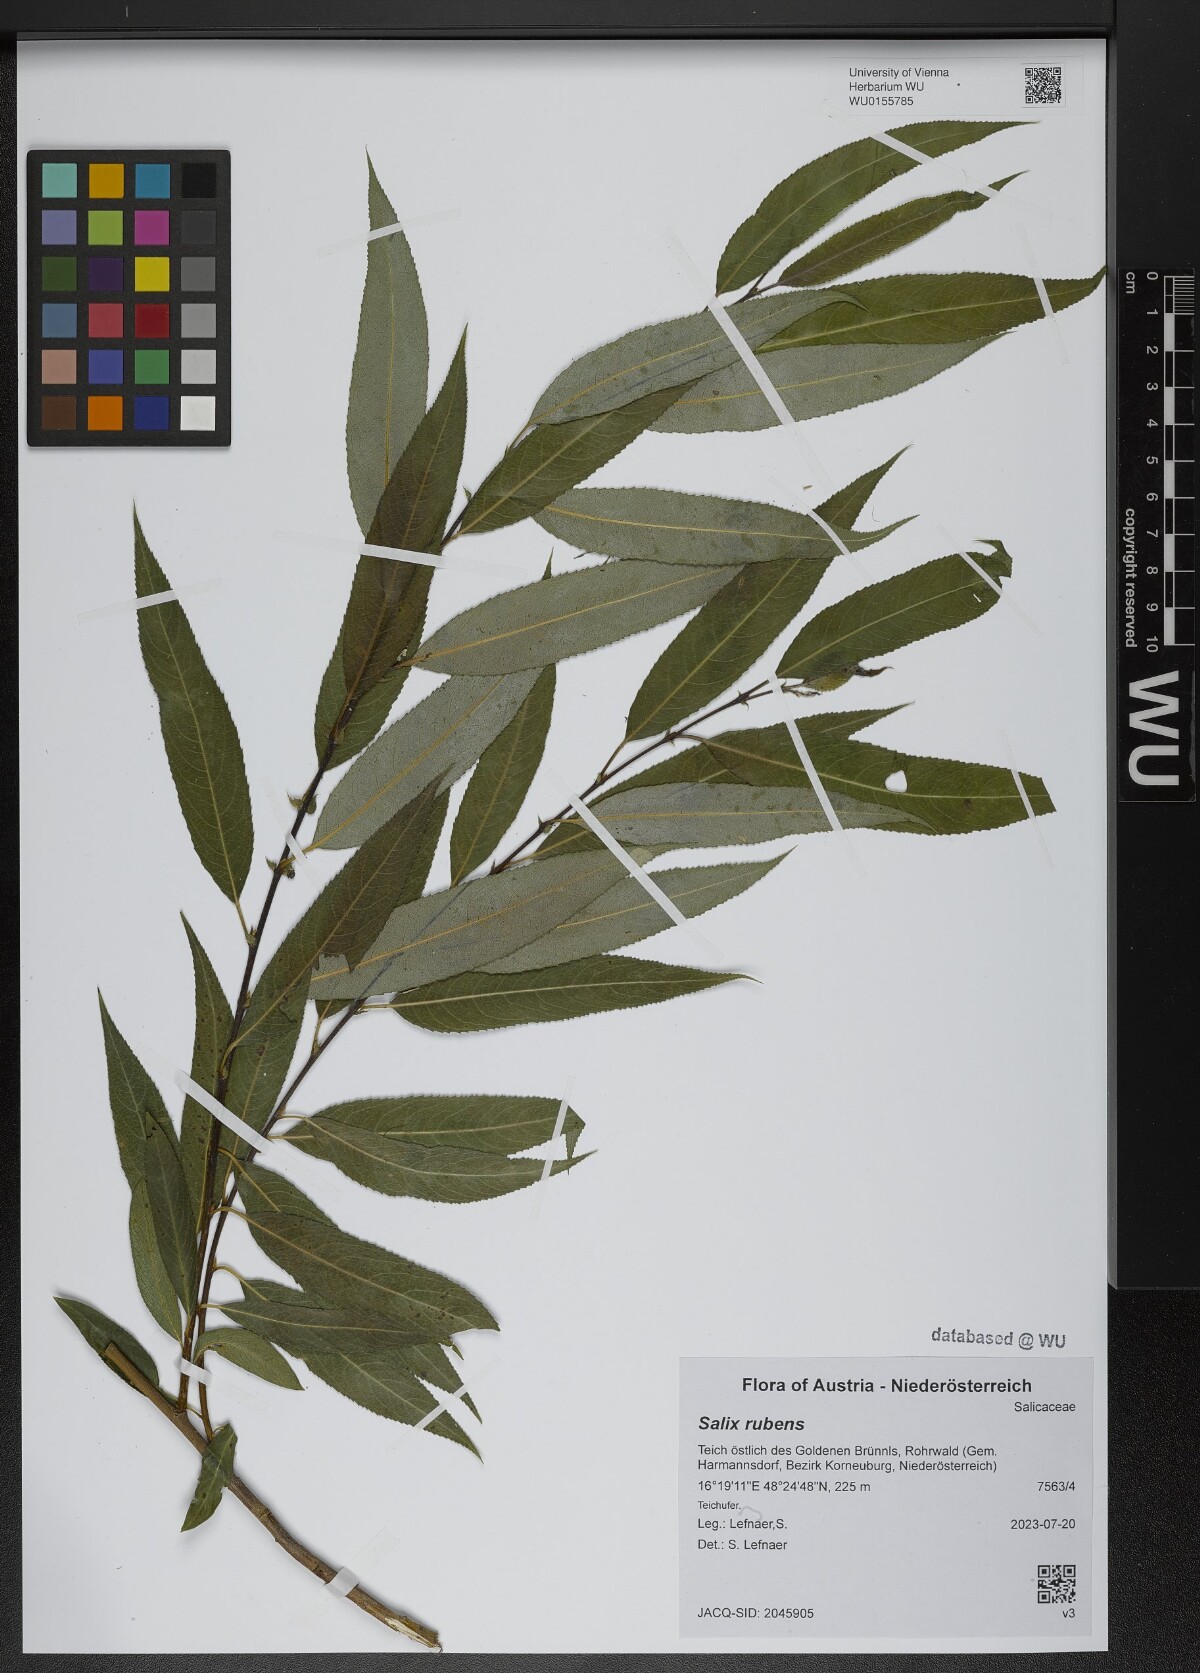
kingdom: Plantae
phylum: Tracheophyta
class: Magnoliopsida
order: Malpighiales
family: Salicaceae
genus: Salix
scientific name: Salix rubens
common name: Hybrid crack willow
